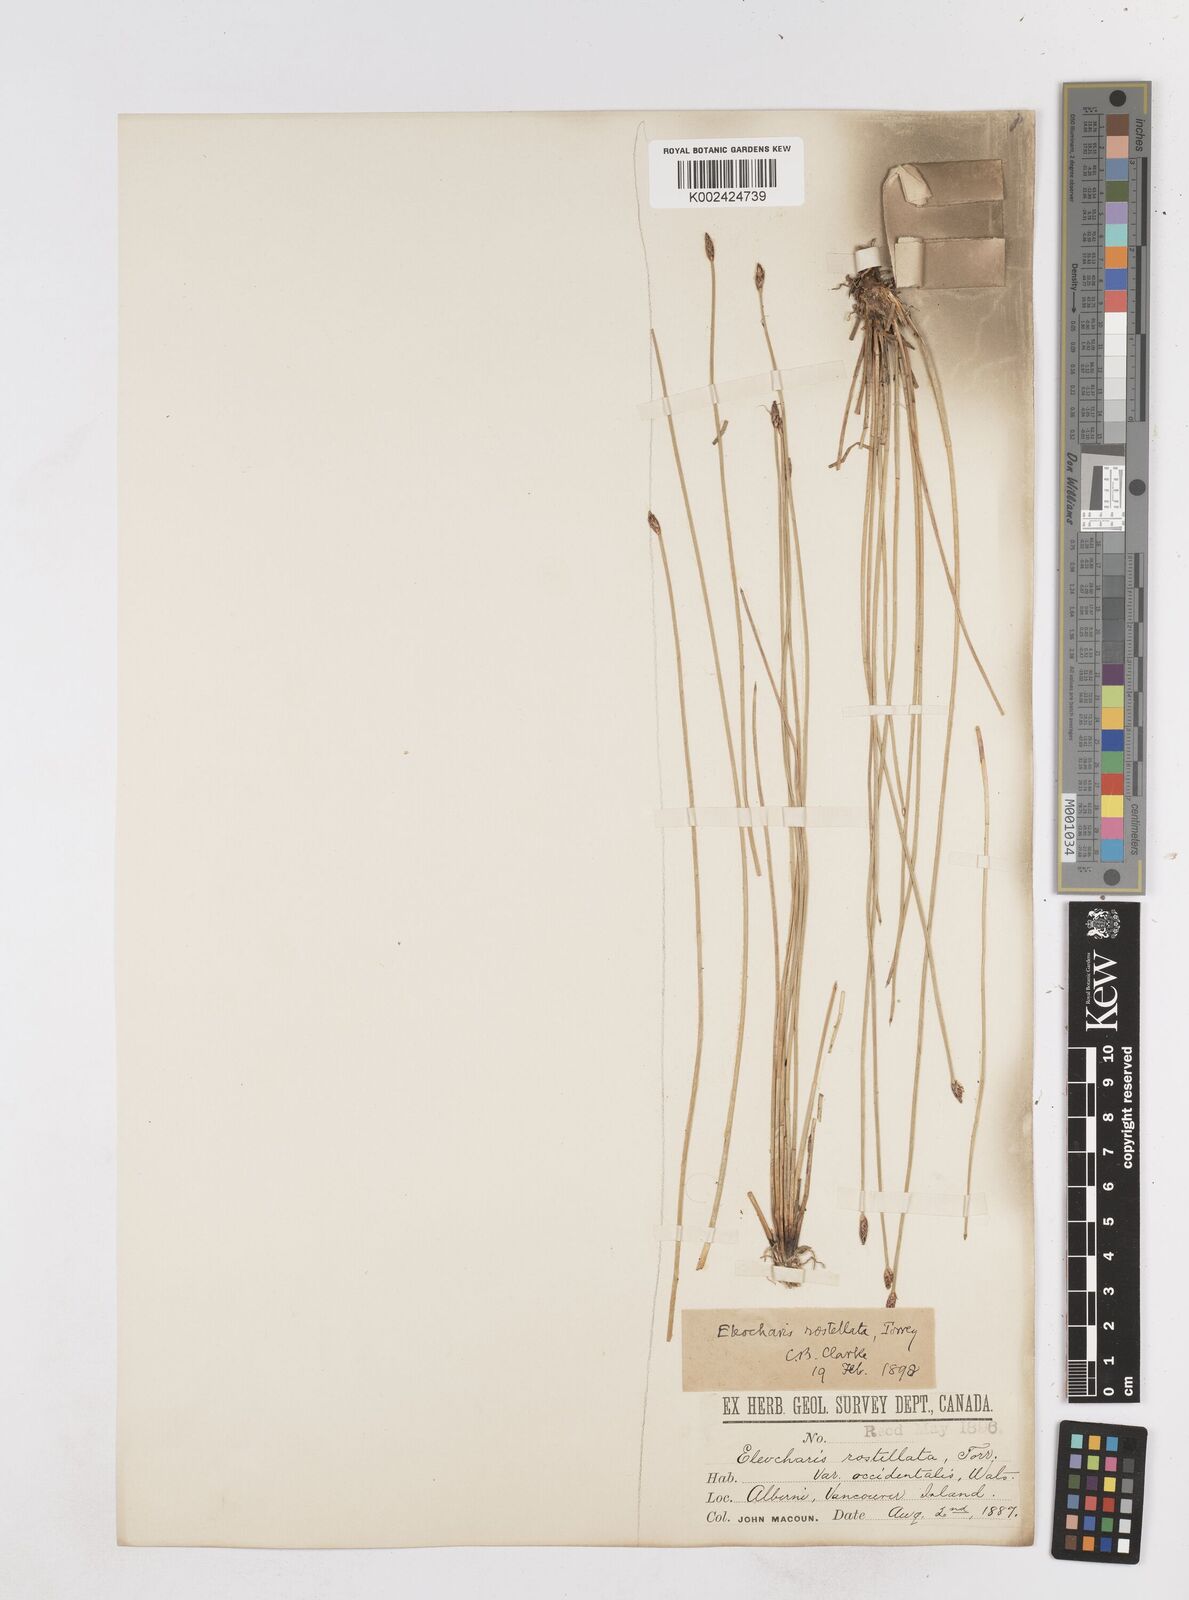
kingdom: Plantae
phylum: Tracheophyta
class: Liliopsida
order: Poales
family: Cyperaceae
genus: Eleocharis
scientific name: Eleocharis rostellata
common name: Walking sedge
